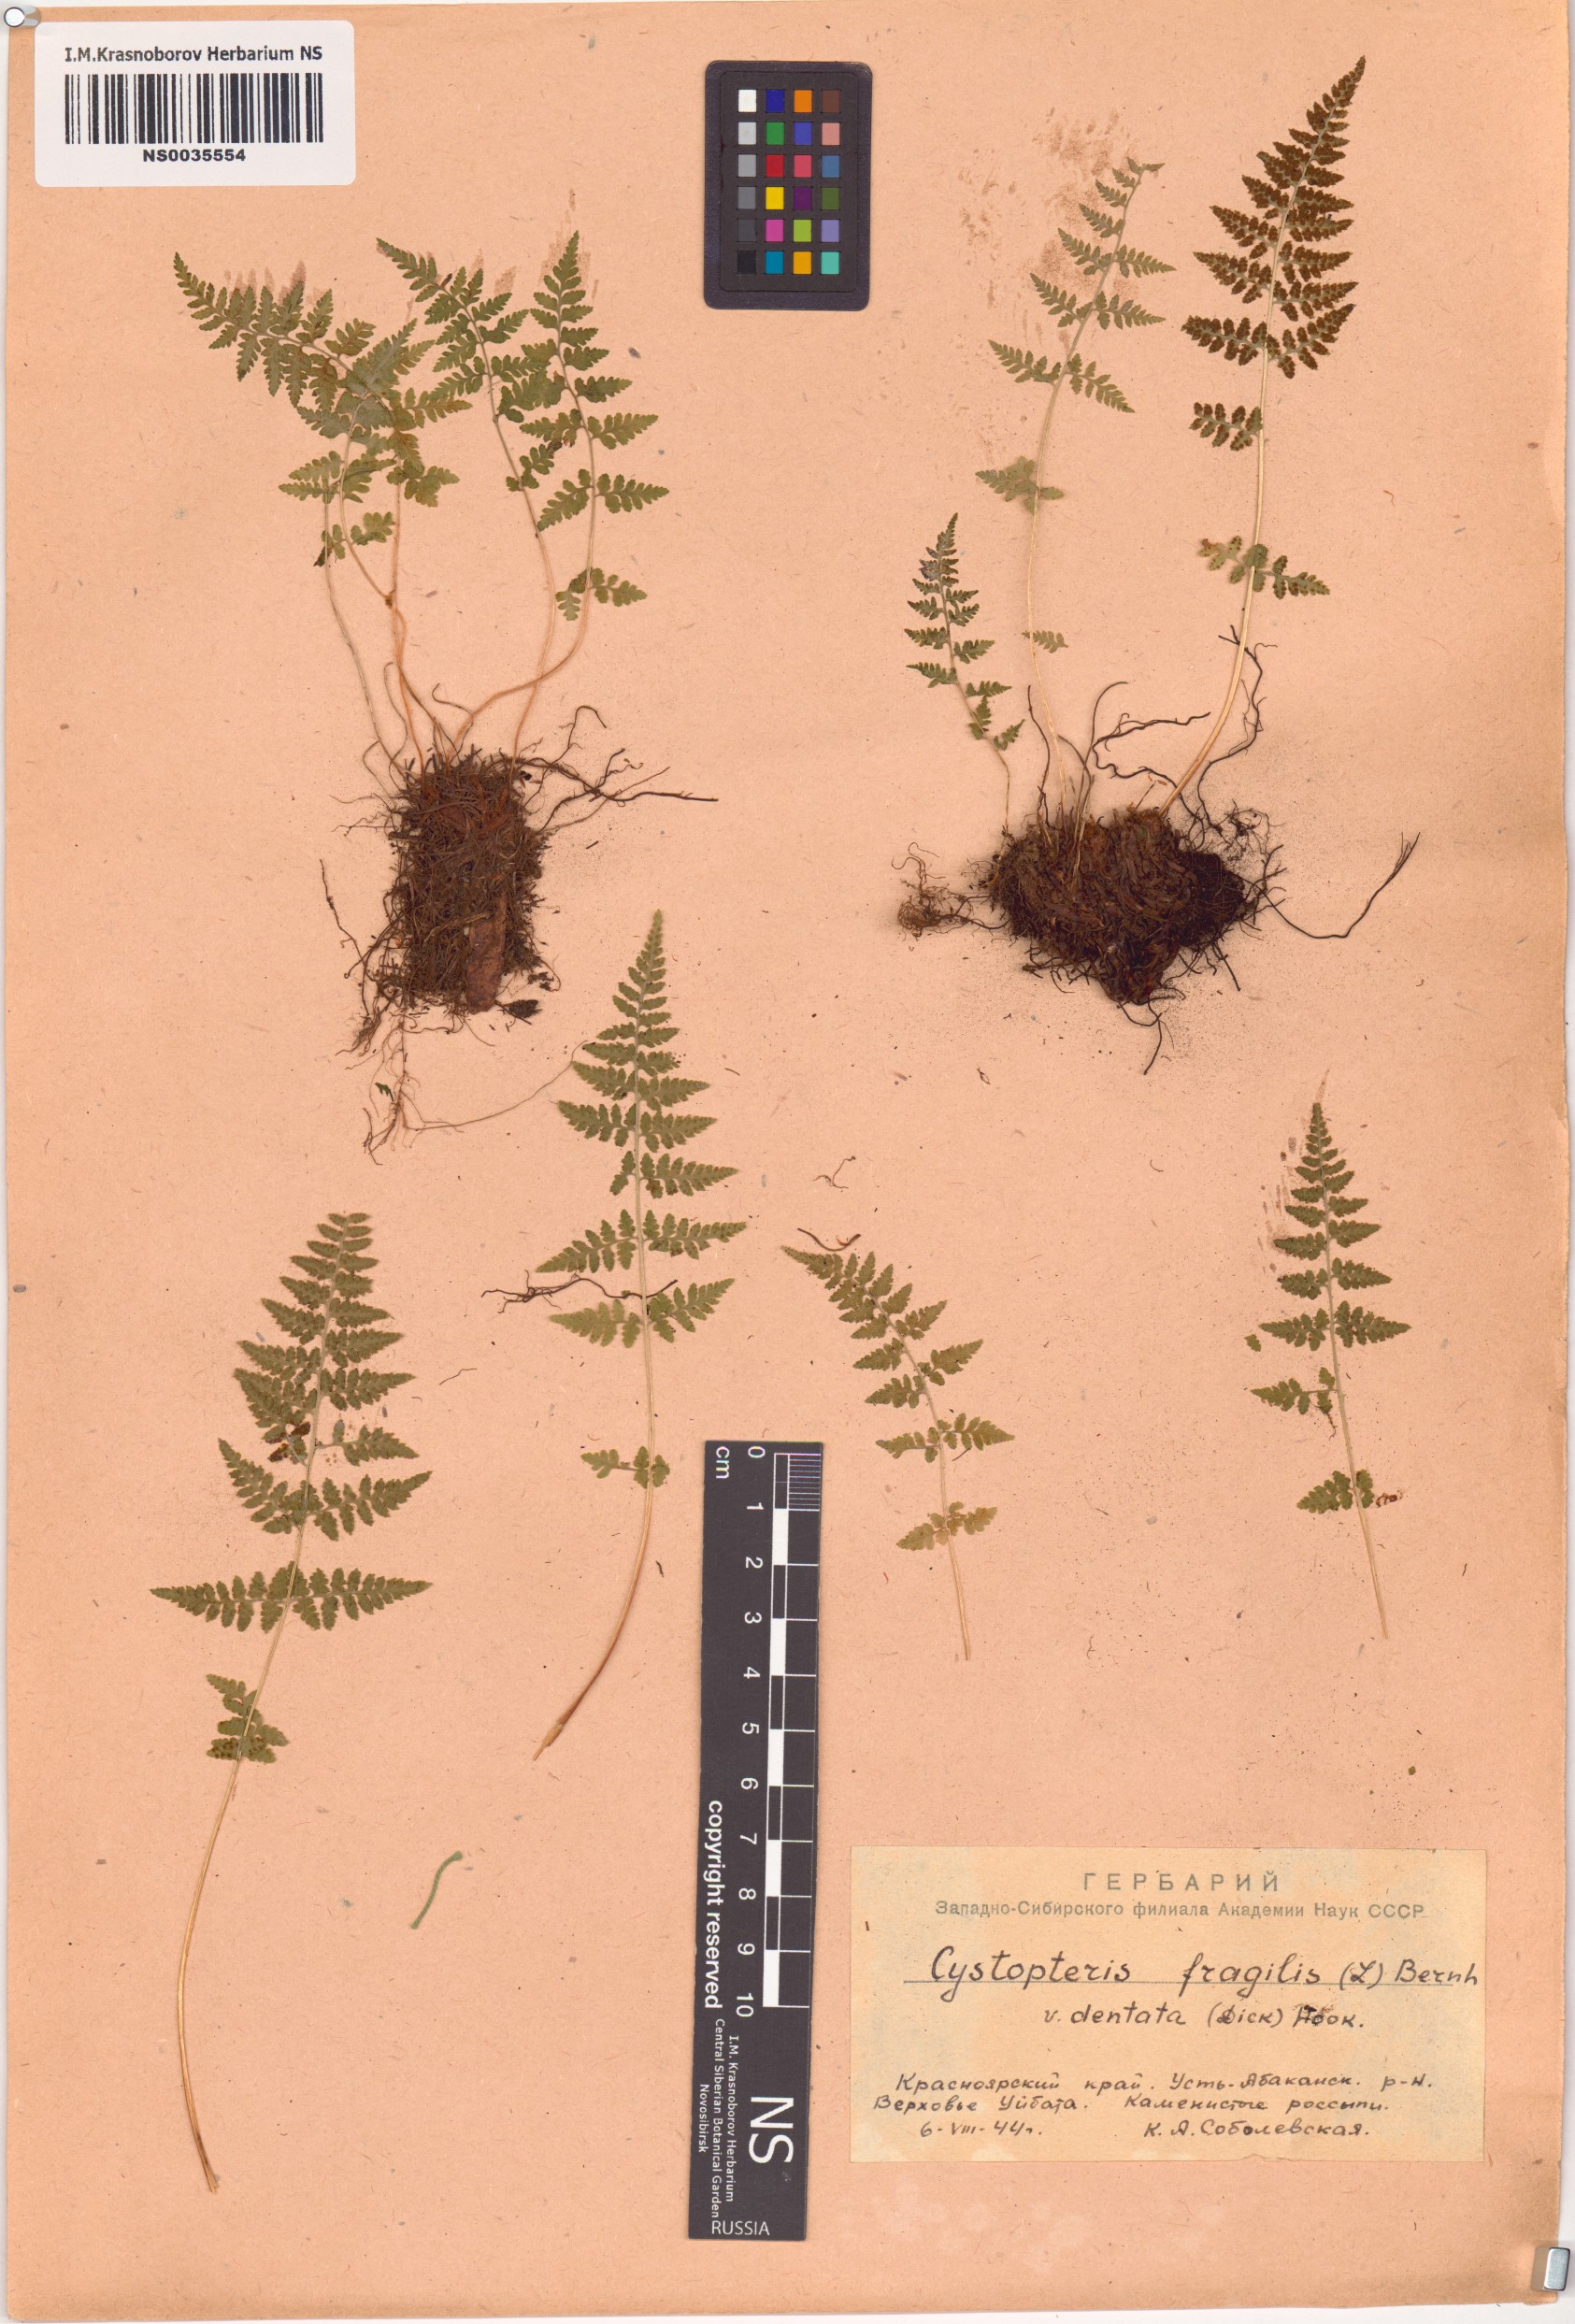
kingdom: Plantae
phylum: Tracheophyta
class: Polypodiopsida
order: Polypodiales
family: Cystopteridaceae
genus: Cystopteris
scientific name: Cystopteris fragilis
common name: Brittle bladder fern
